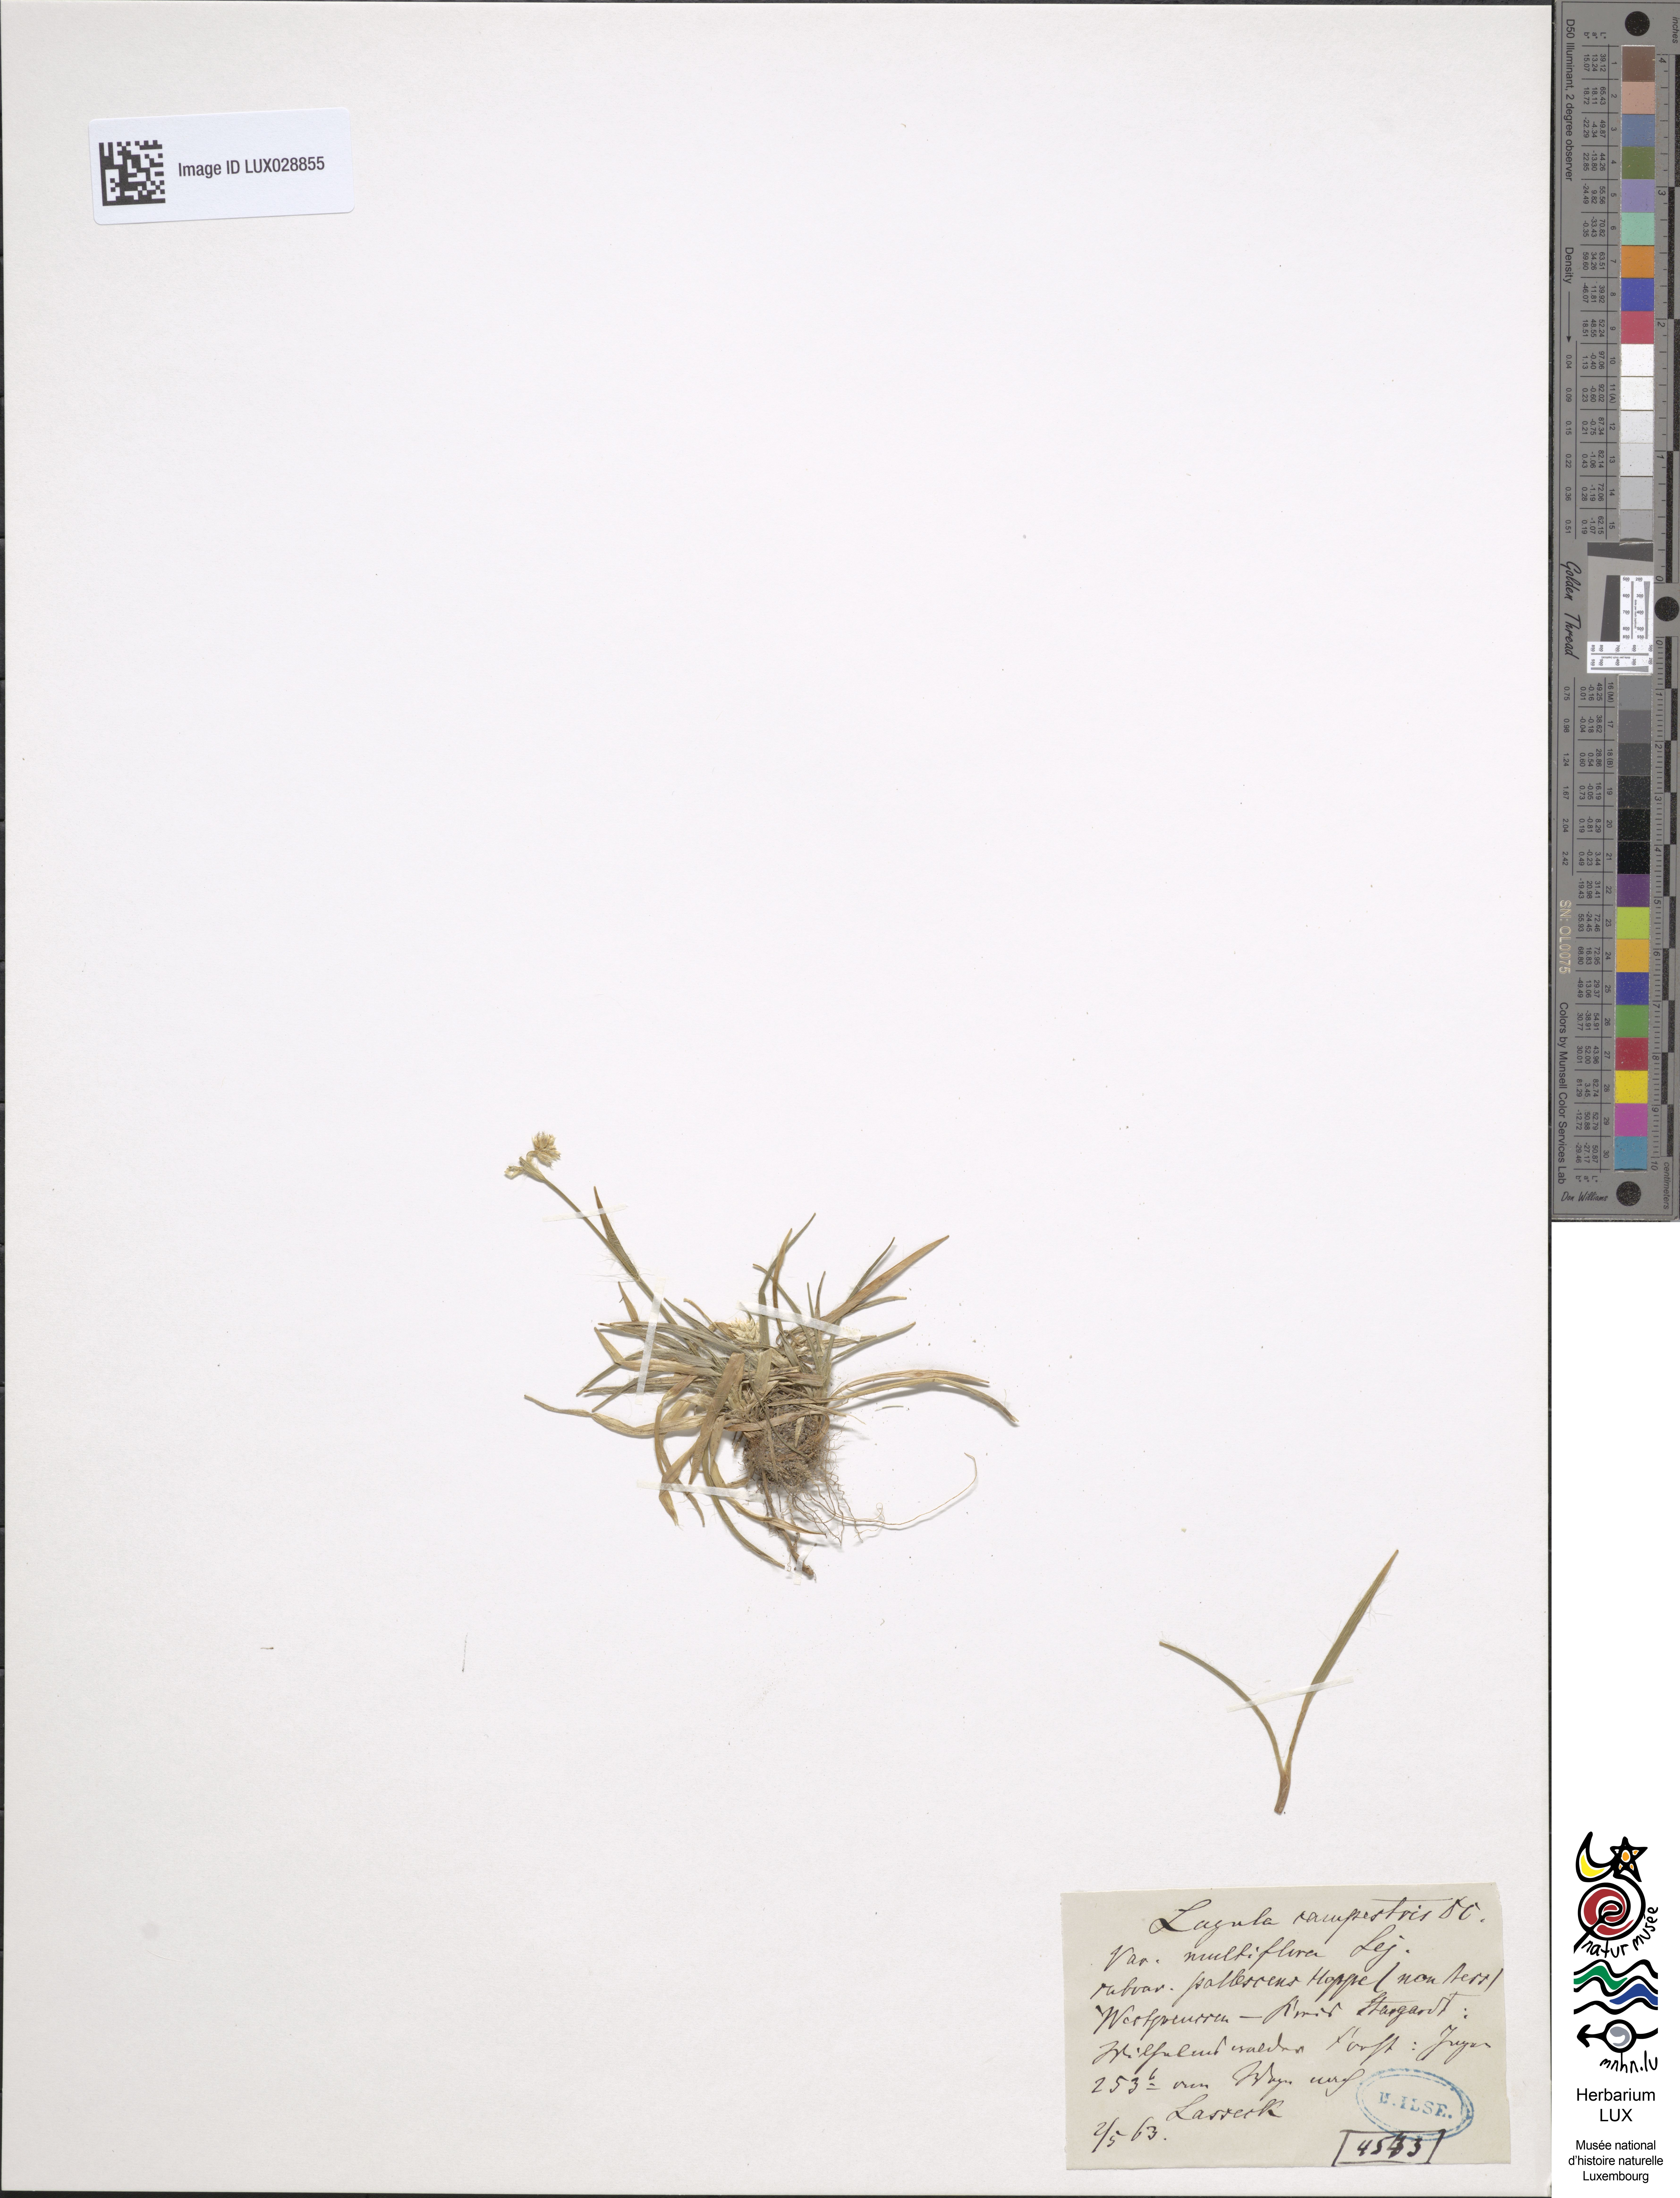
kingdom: Plantae
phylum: Tracheophyta
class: Liliopsida
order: Poales
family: Juncaceae
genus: Luzula
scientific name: Luzula multiflora
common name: Heath wood-rush
